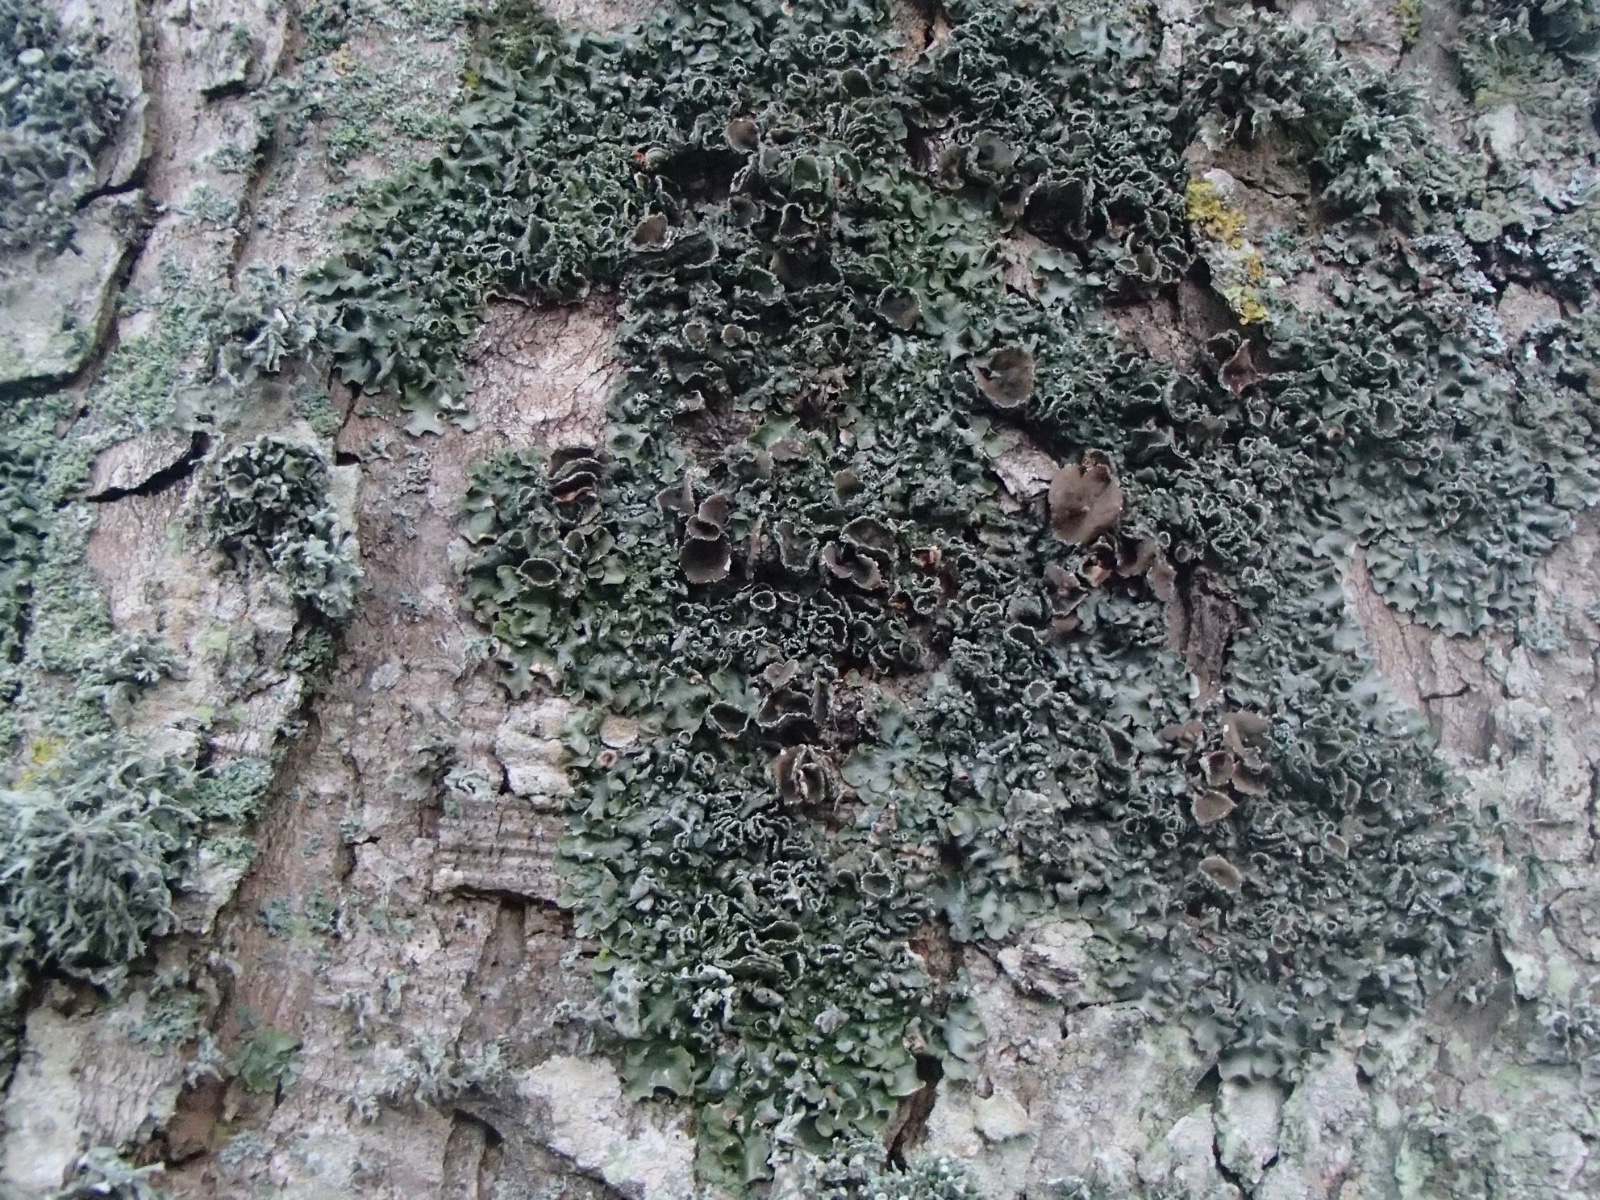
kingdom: Fungi
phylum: Ascomycota
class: Lecanoromycetes
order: Lecanorales
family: Parmeliaceae
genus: Pleurosticta
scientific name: Pleurosticta acetabulum
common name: stor skållav
